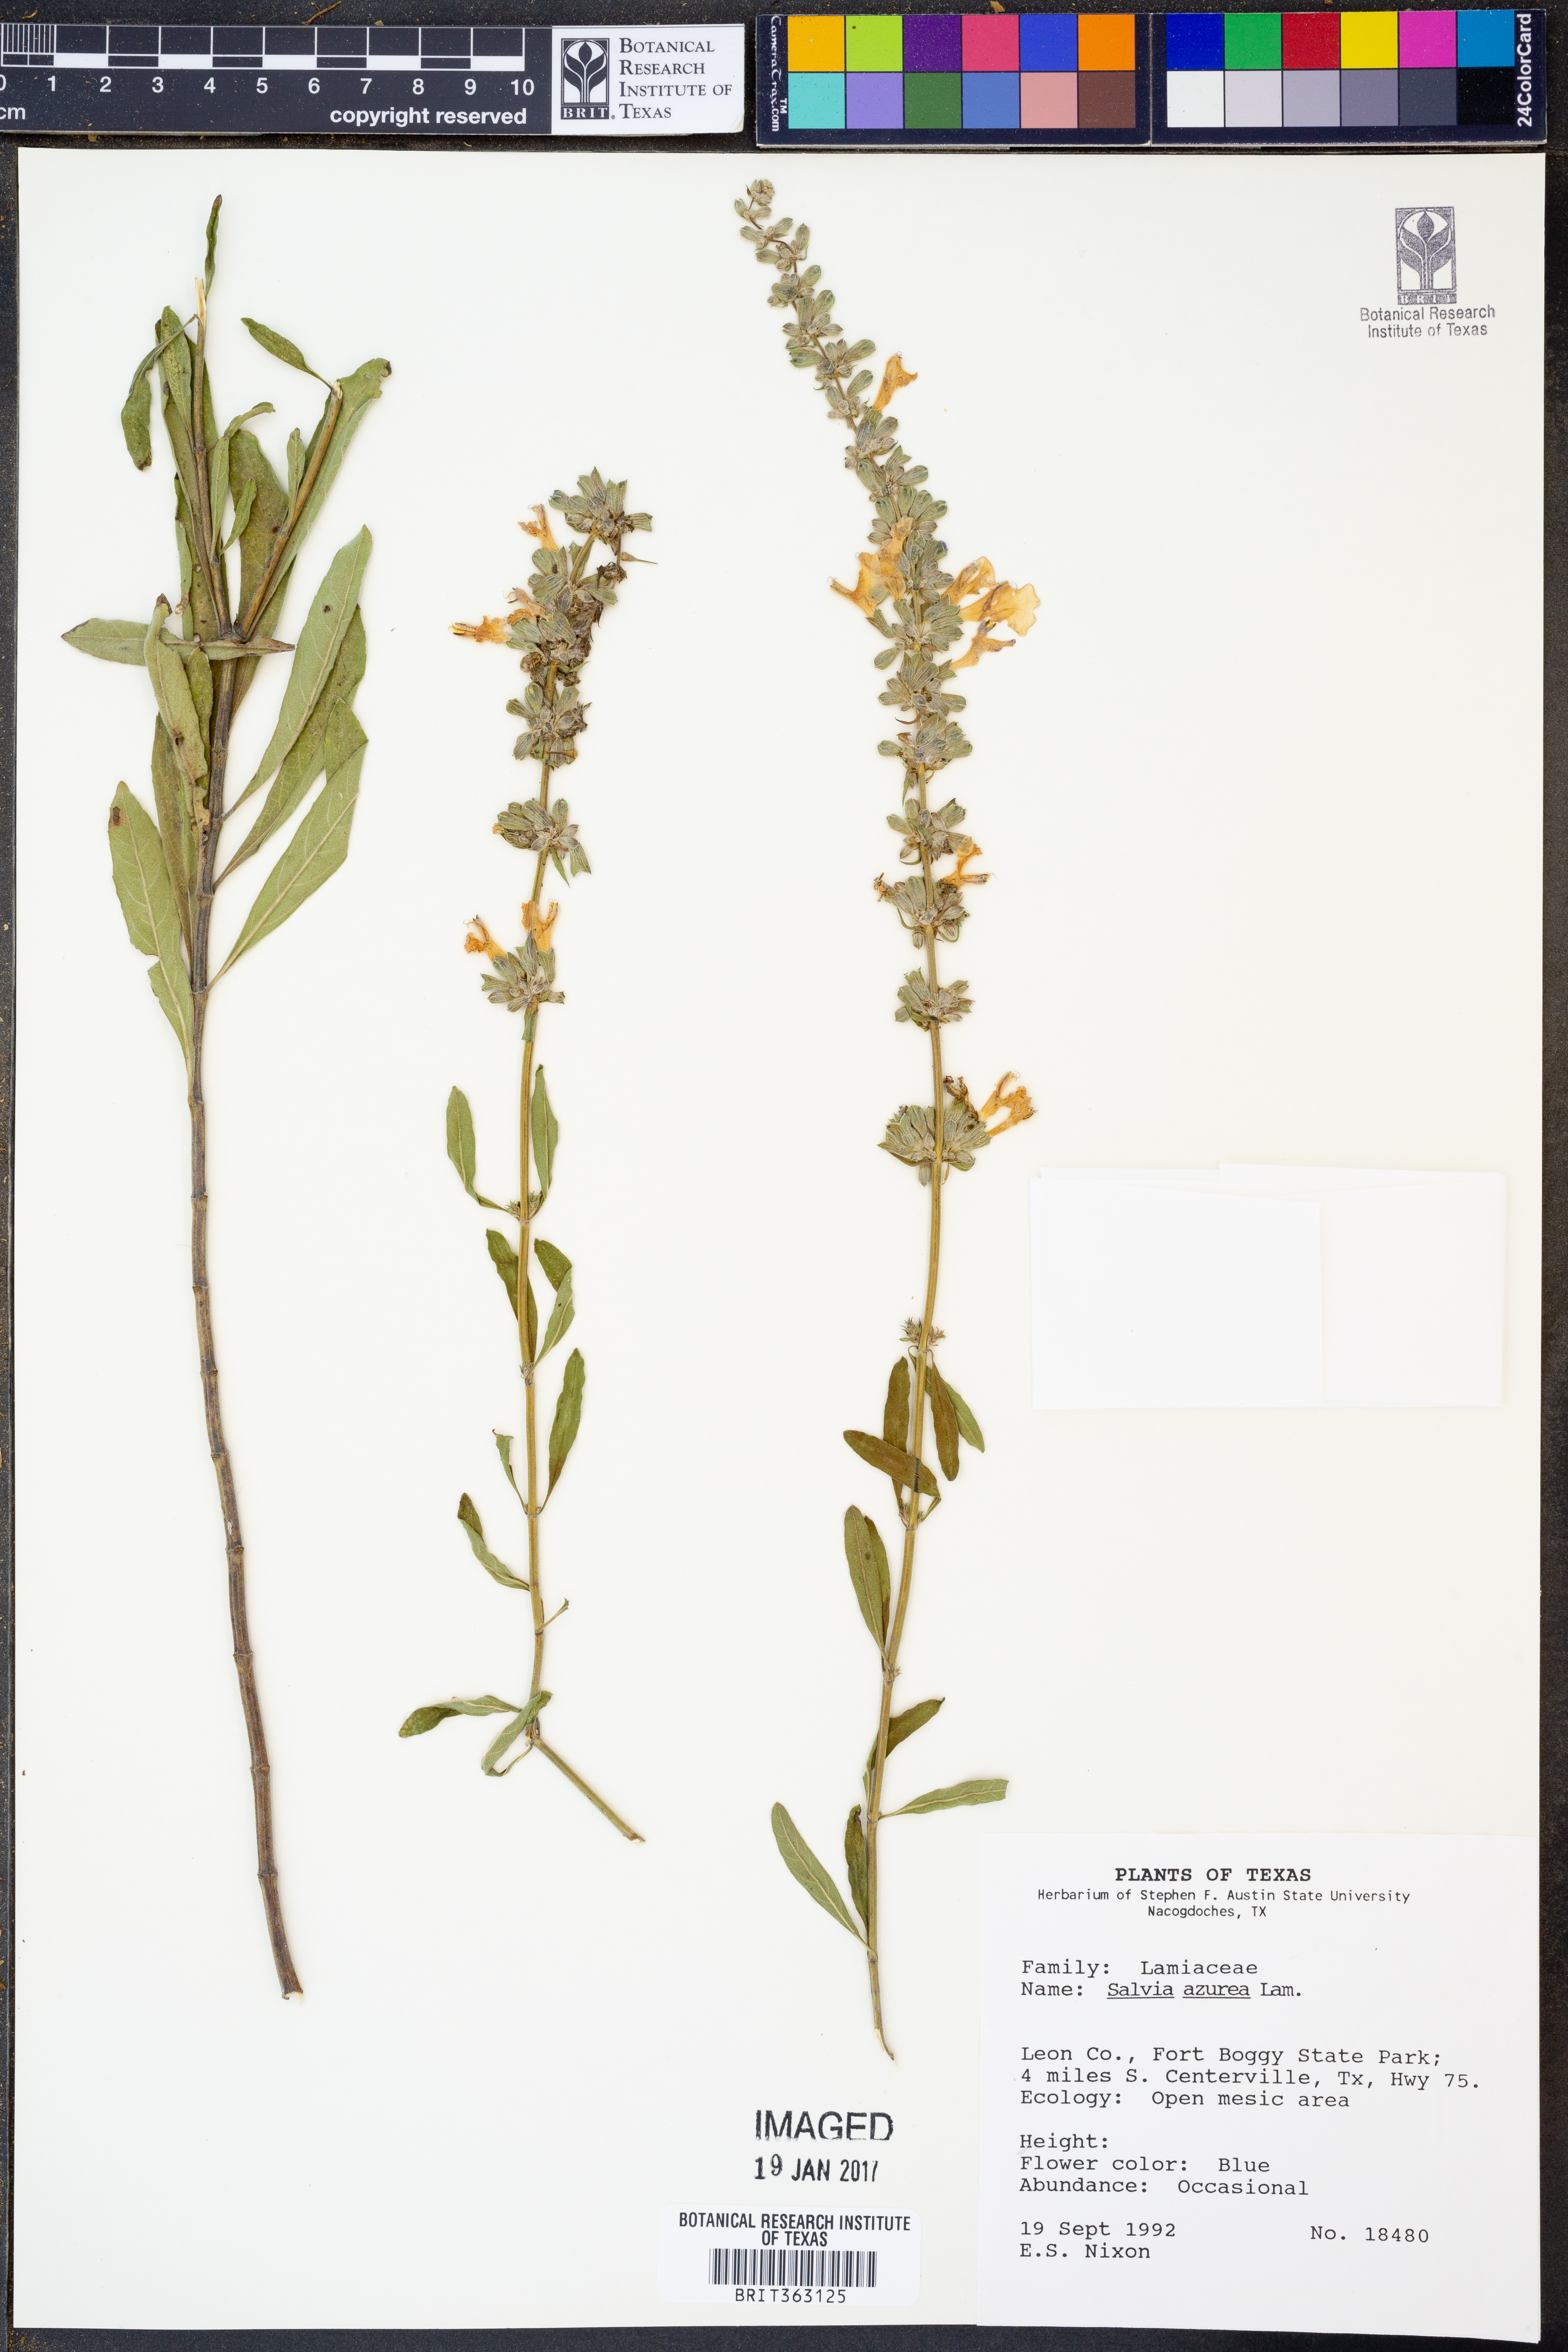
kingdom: Plantae
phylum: Tracheophyta
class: Magnoliopsida
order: Lamiales
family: Lamiaceae
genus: Salvia
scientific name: Salvia azurea
